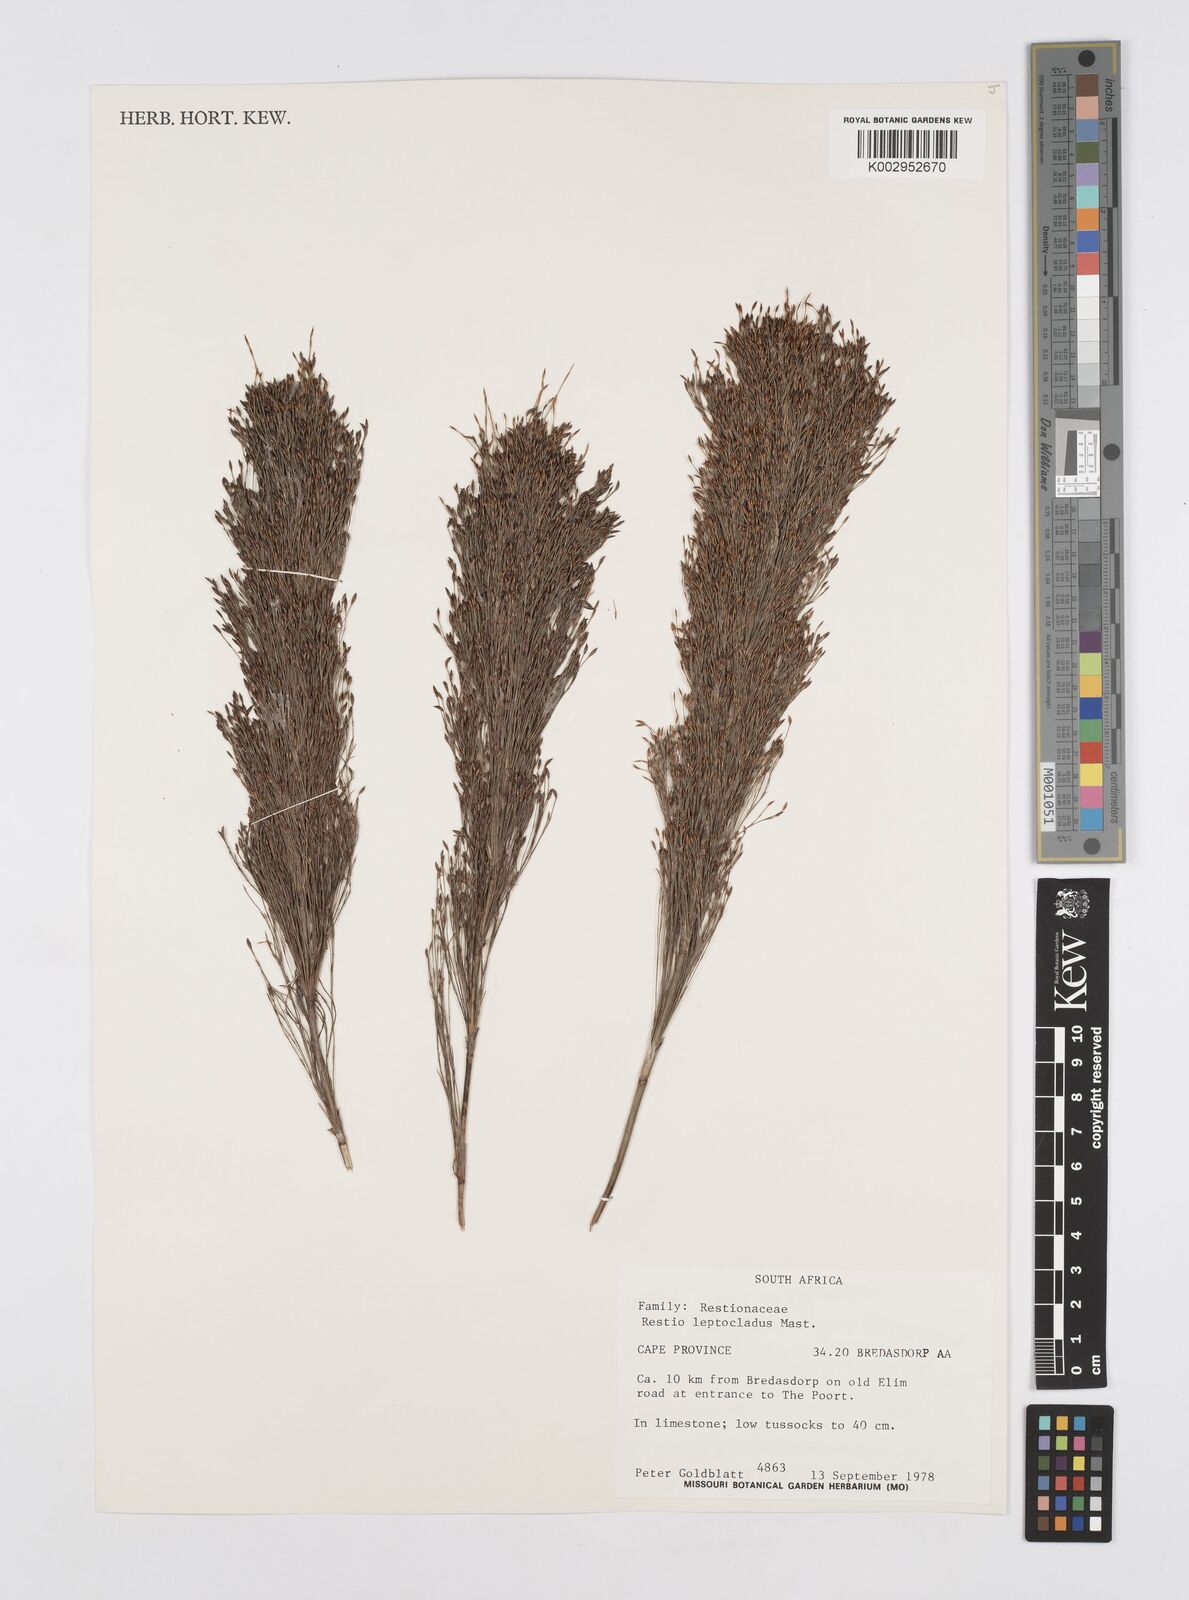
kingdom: Plantae
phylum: Tracheophyta
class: Liliopsida
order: Poales
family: Restionaceae
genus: Restio
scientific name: Restio leptoclados
